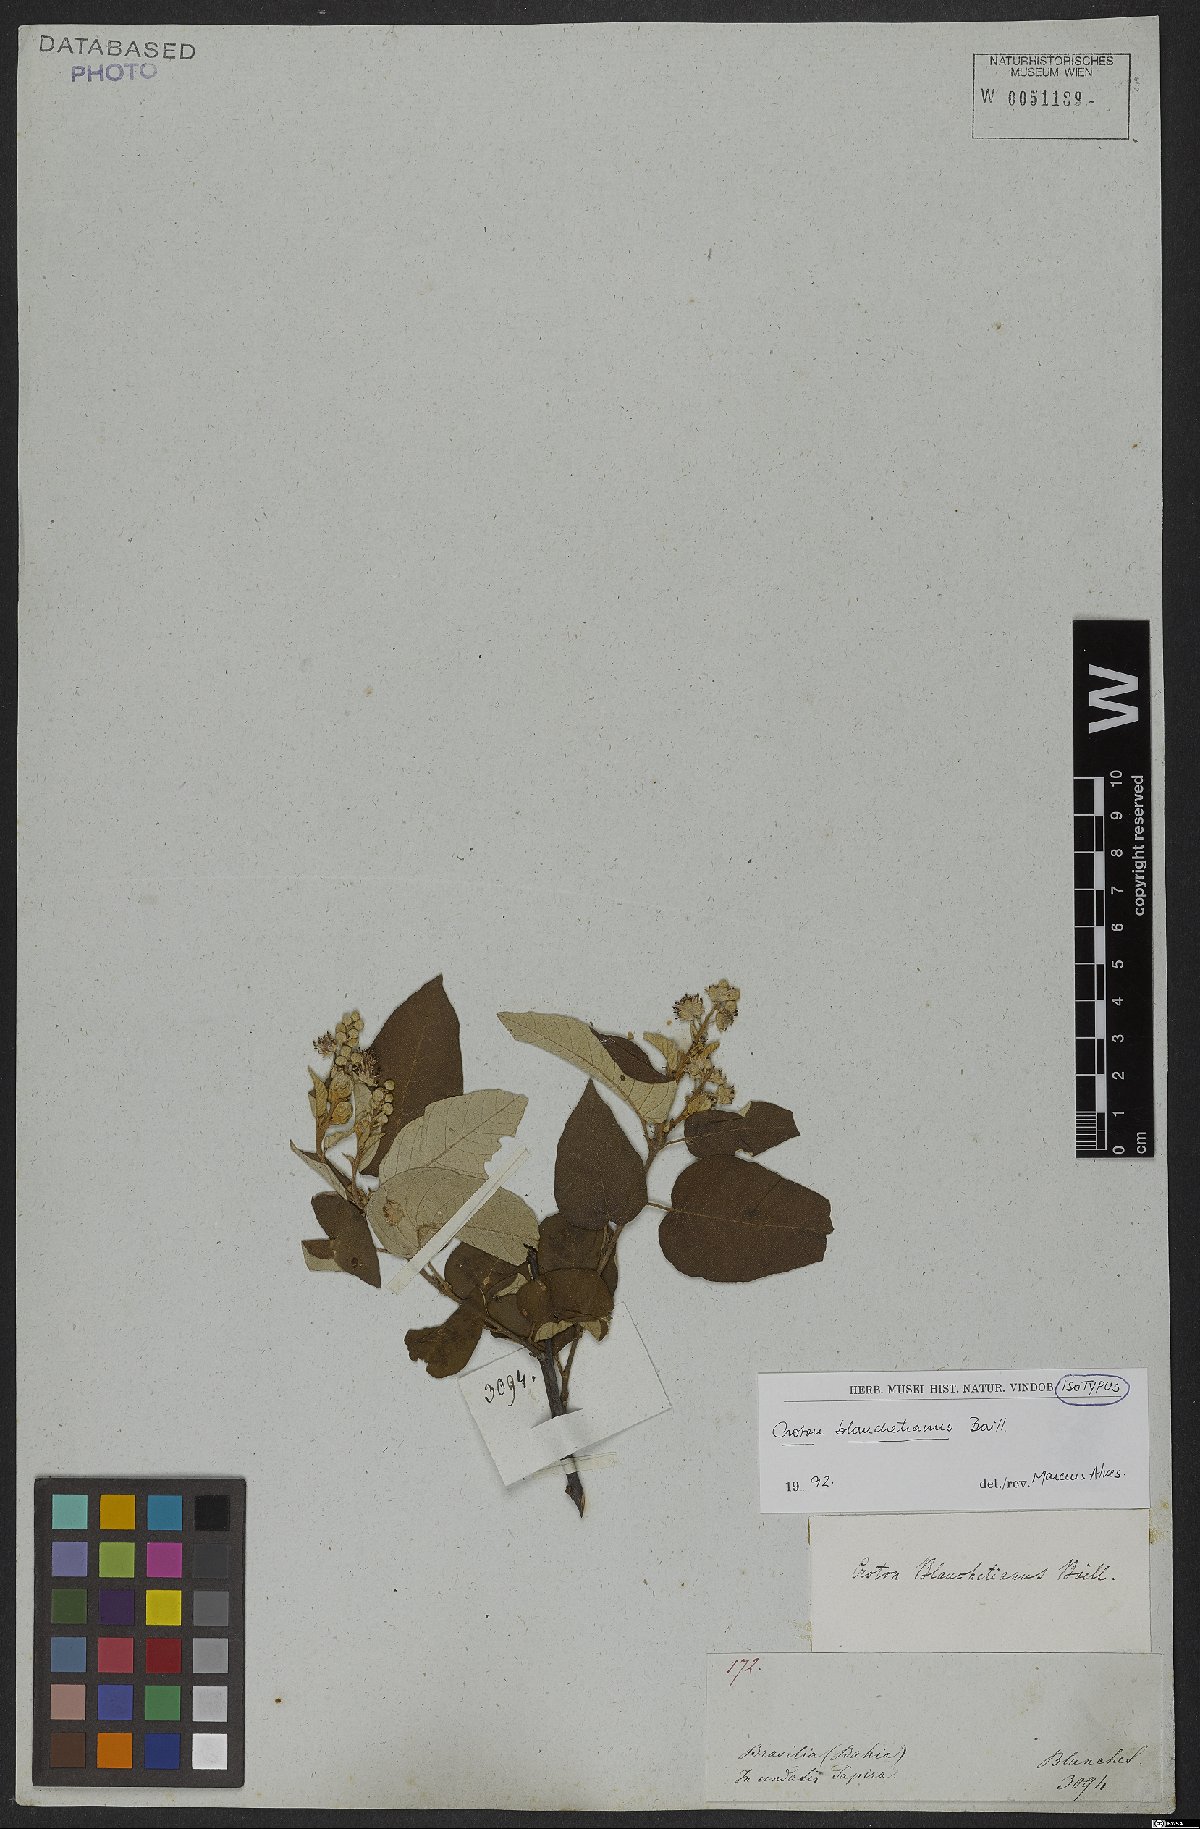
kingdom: Plantae
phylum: Tracheophyta
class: Magnoliopsida
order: Malpighiales
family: Euphorbiaceae
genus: Croton
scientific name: Croton blanchetianus
